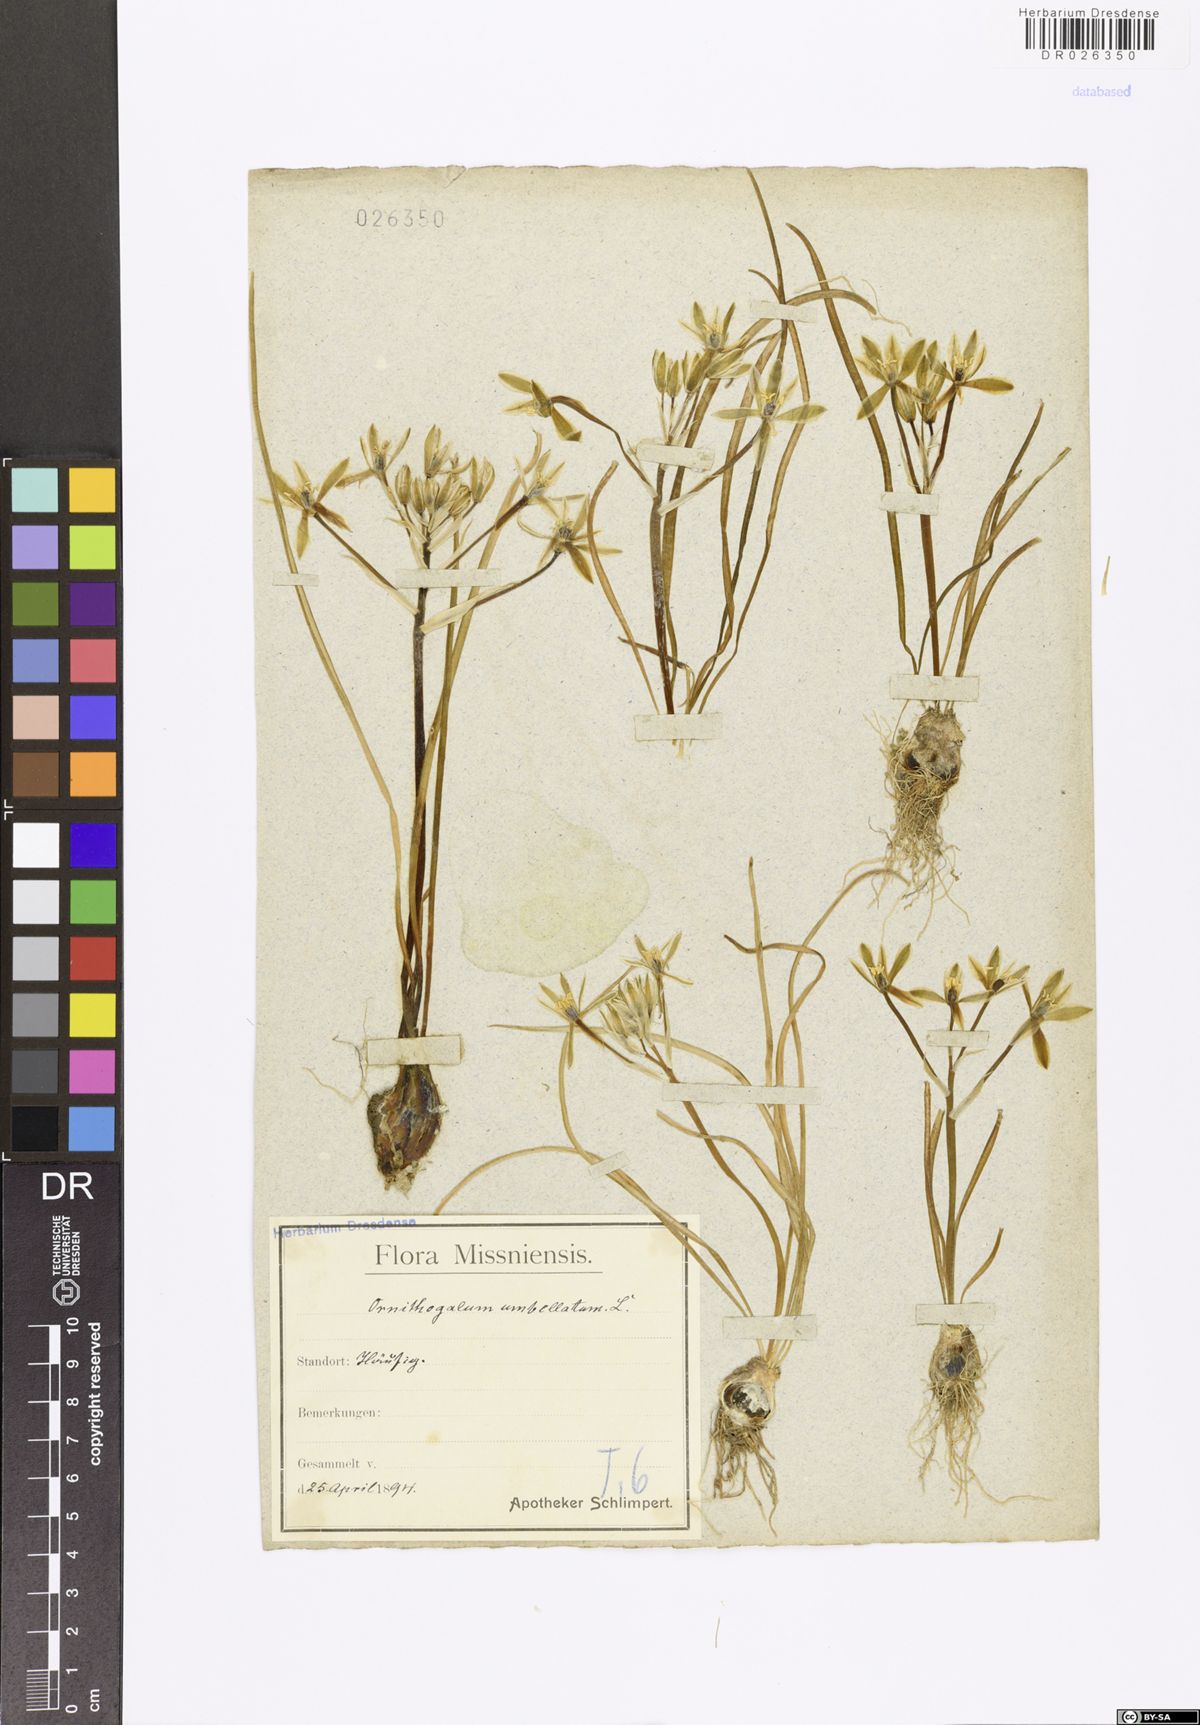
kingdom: Plantae
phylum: Tracheophyta
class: Liliopsida
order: Asparagales
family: Asparagaceae
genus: Ornithogalum
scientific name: Ornithogalum umbellatum
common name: Garden star-of-bethlehem
